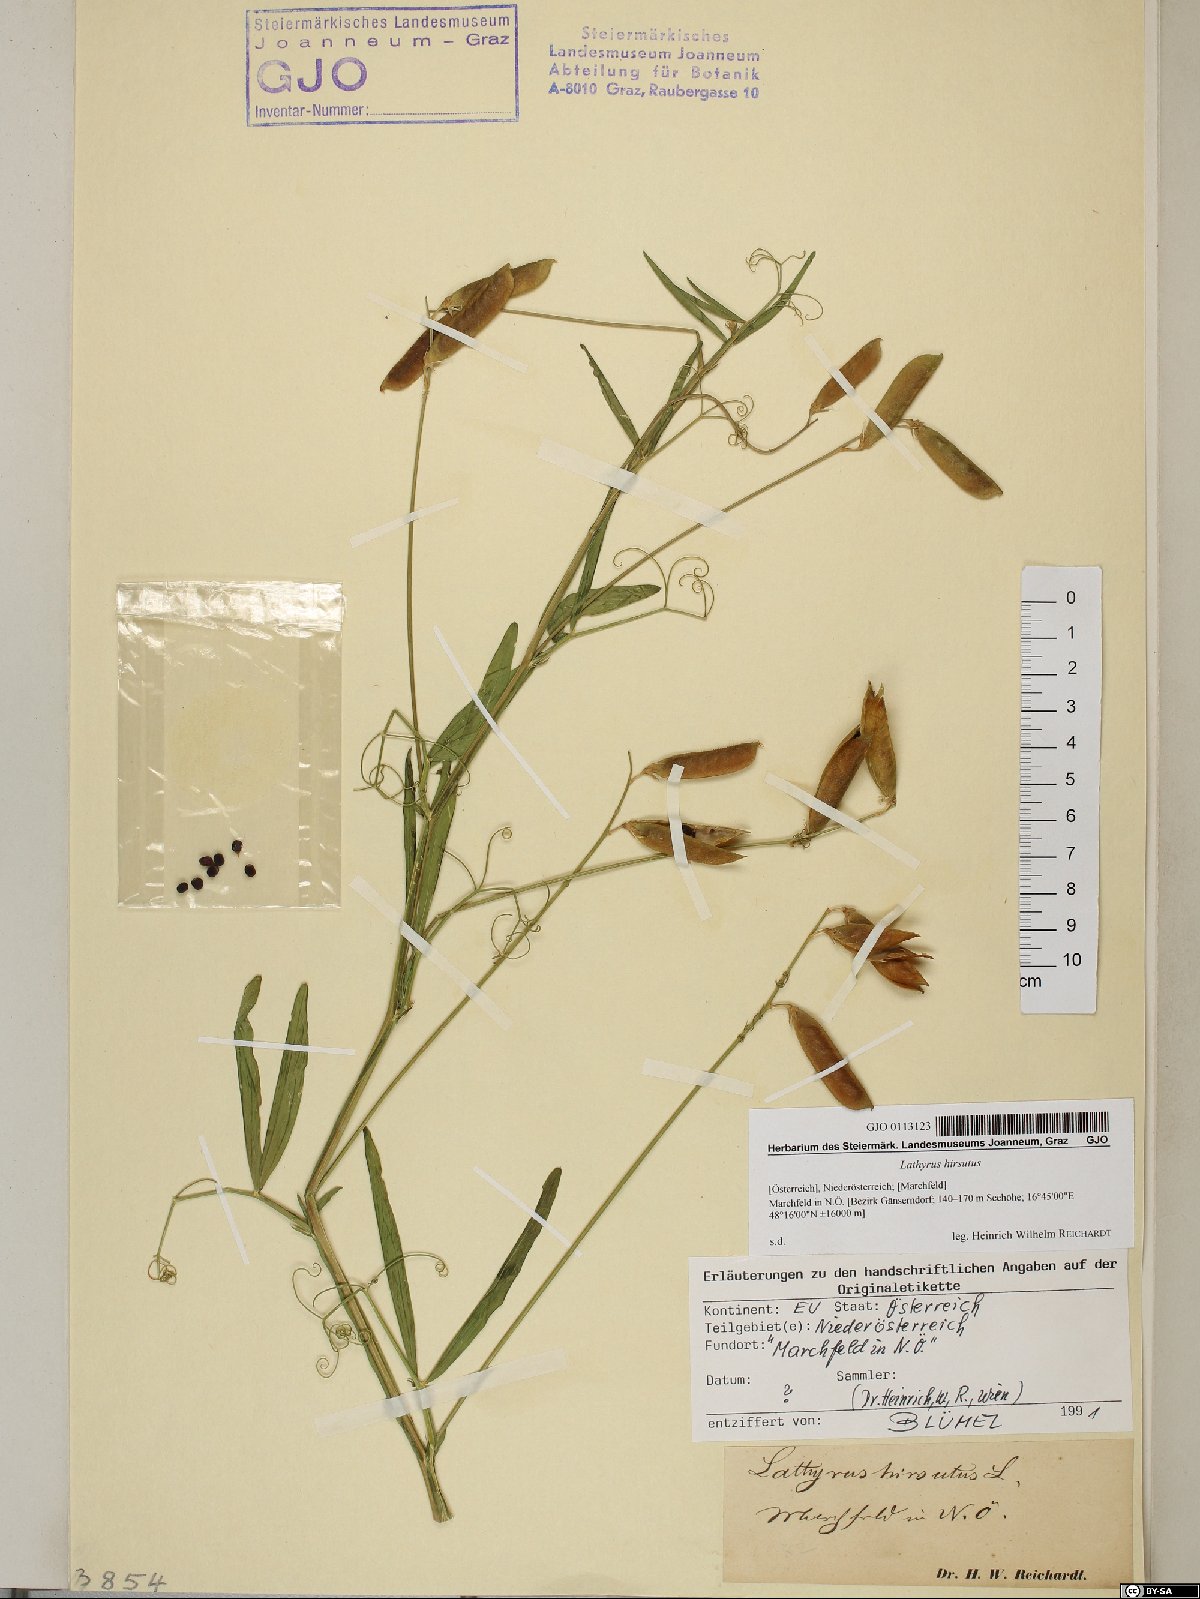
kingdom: Plantae
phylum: Tracheophyta
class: Magnoliopsida
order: Fabales
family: Fabaceae
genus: Lathyrus
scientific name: Lathyrus hirsutus
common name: Hairy vetchling
